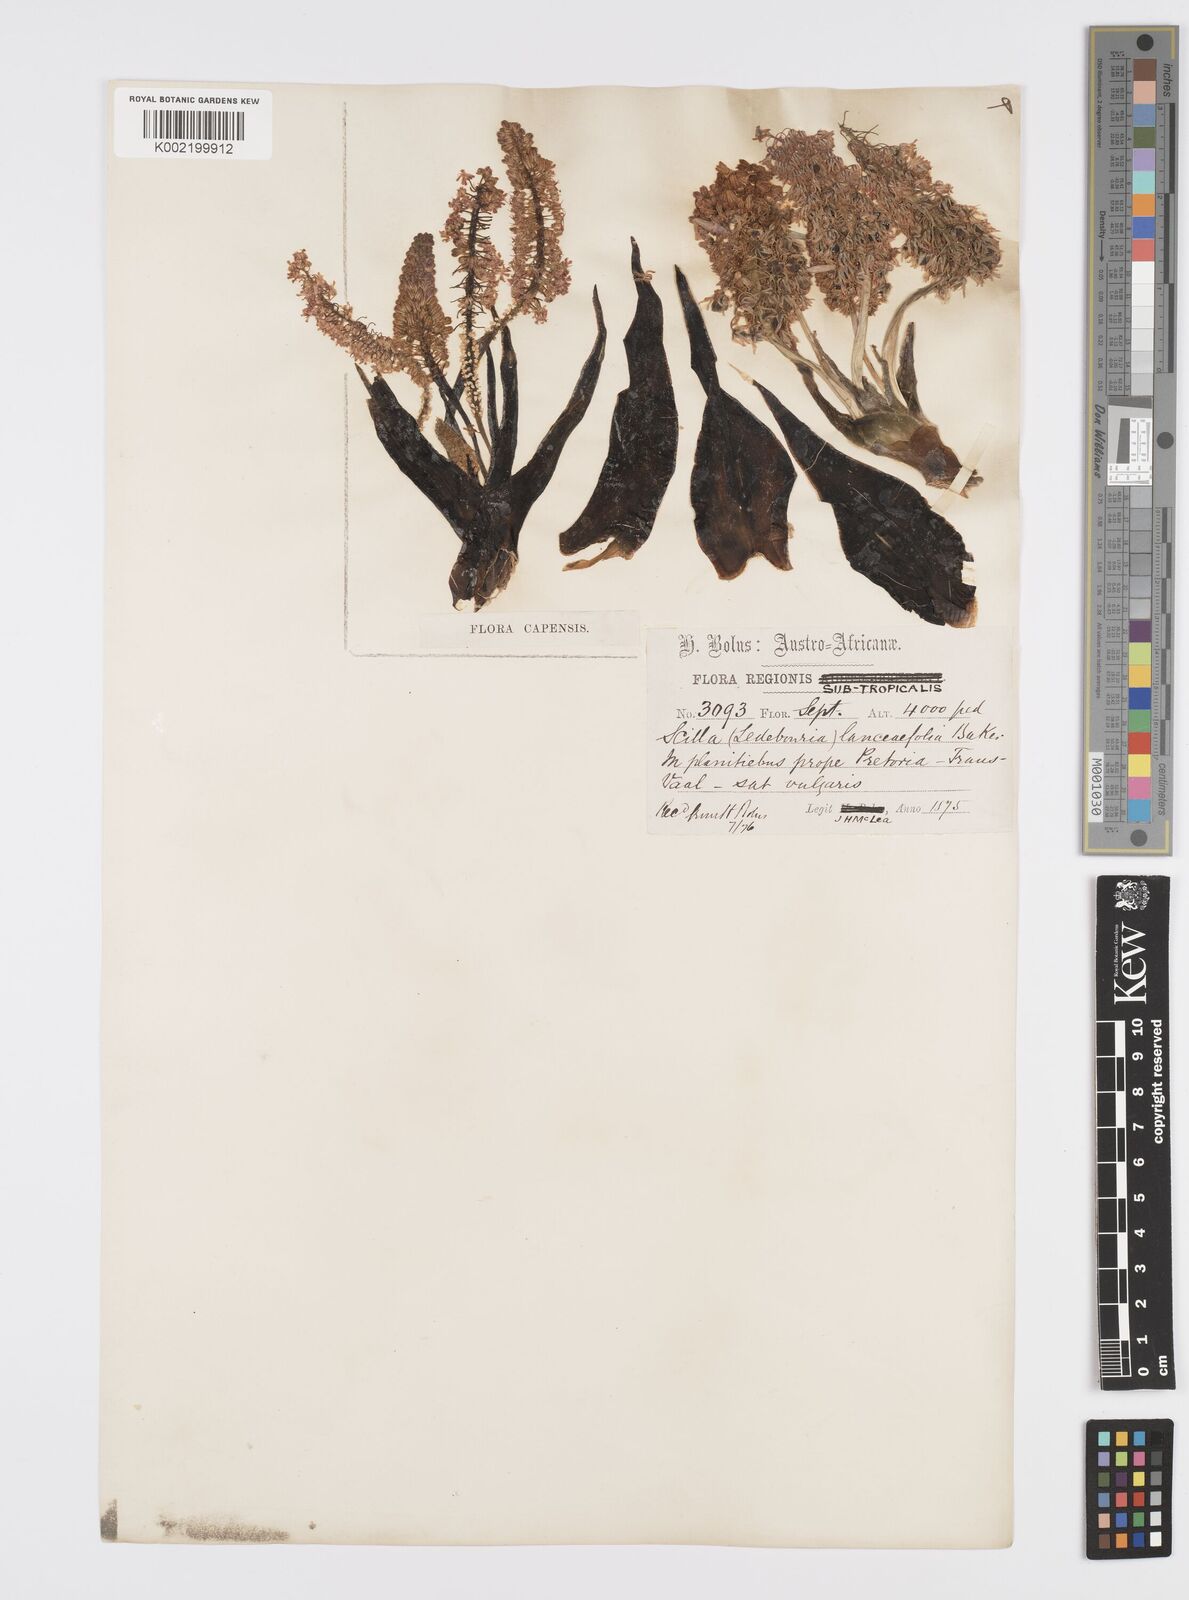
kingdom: Plantae
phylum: Tracheophyta
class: Liliopsida
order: Asparagales
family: Asparagaceae
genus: Ledebouria
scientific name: Ledebouria revoluta
